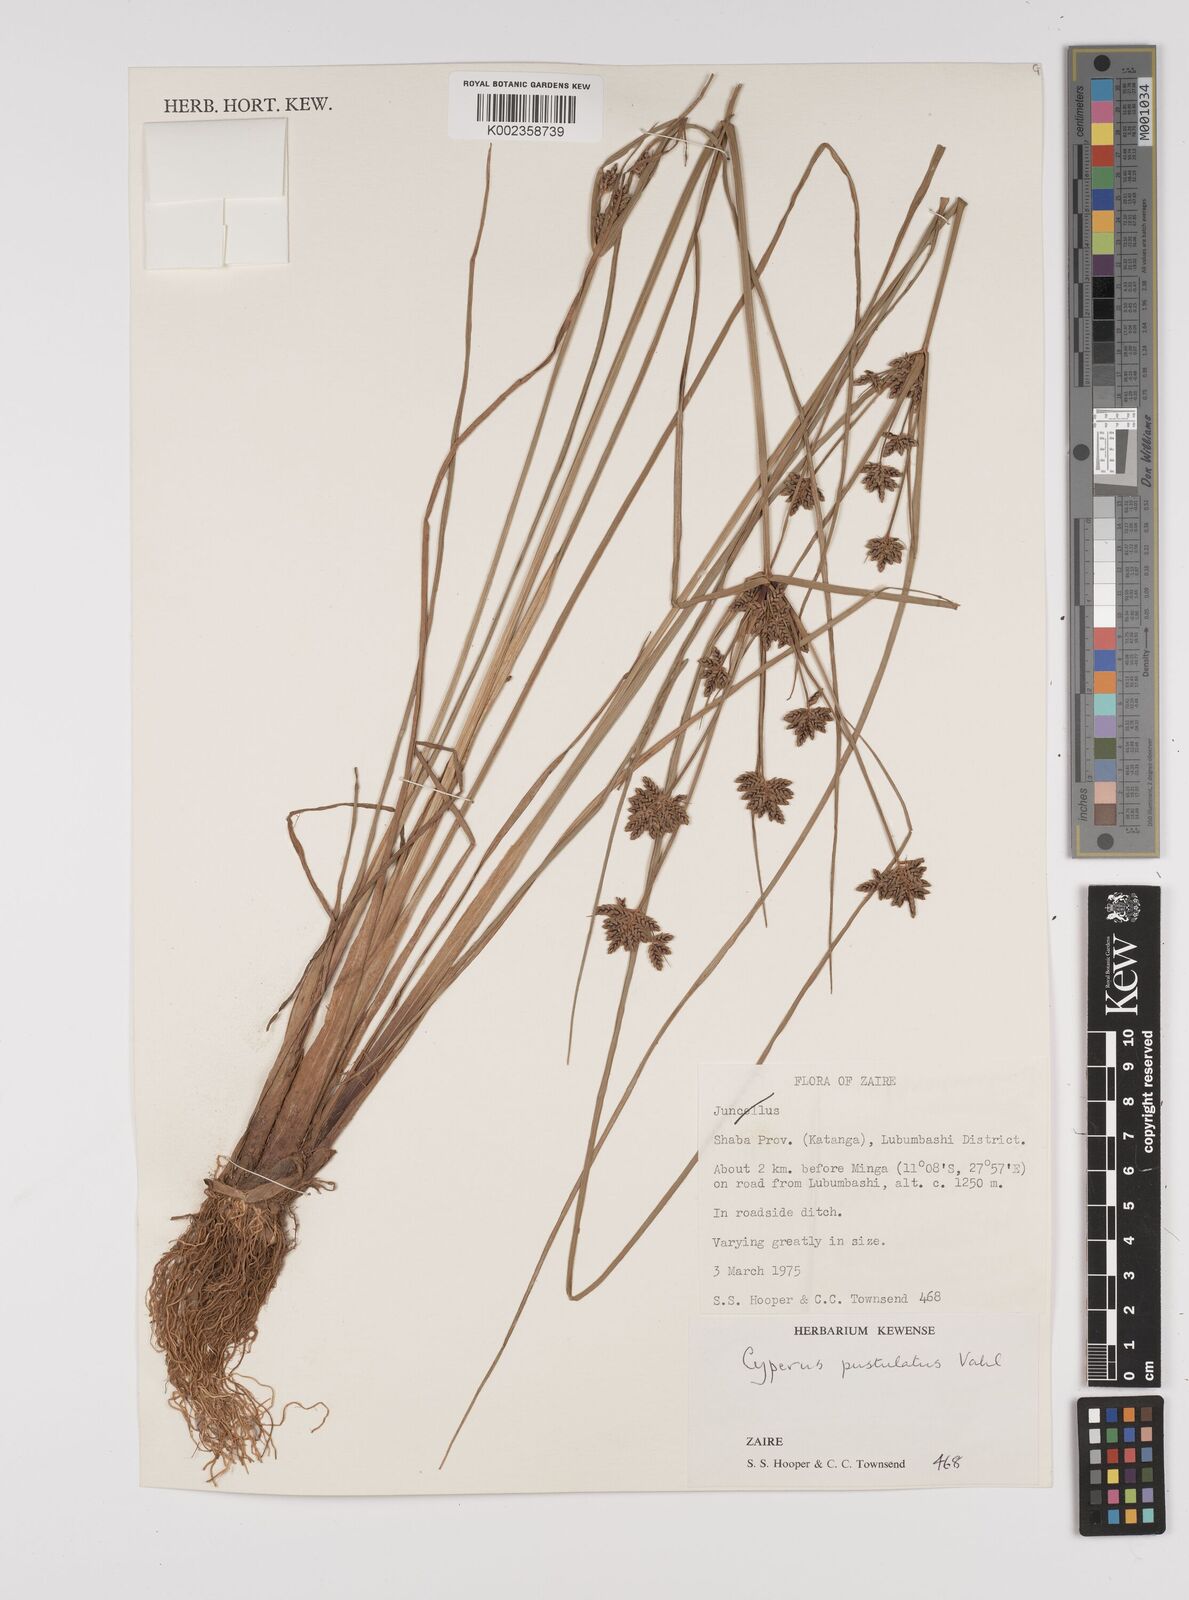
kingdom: Plantae
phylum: Tracheophyta
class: Liliopsida
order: Poales
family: Cyperaceae
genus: Cyperus
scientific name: Cyperus pustulatus
